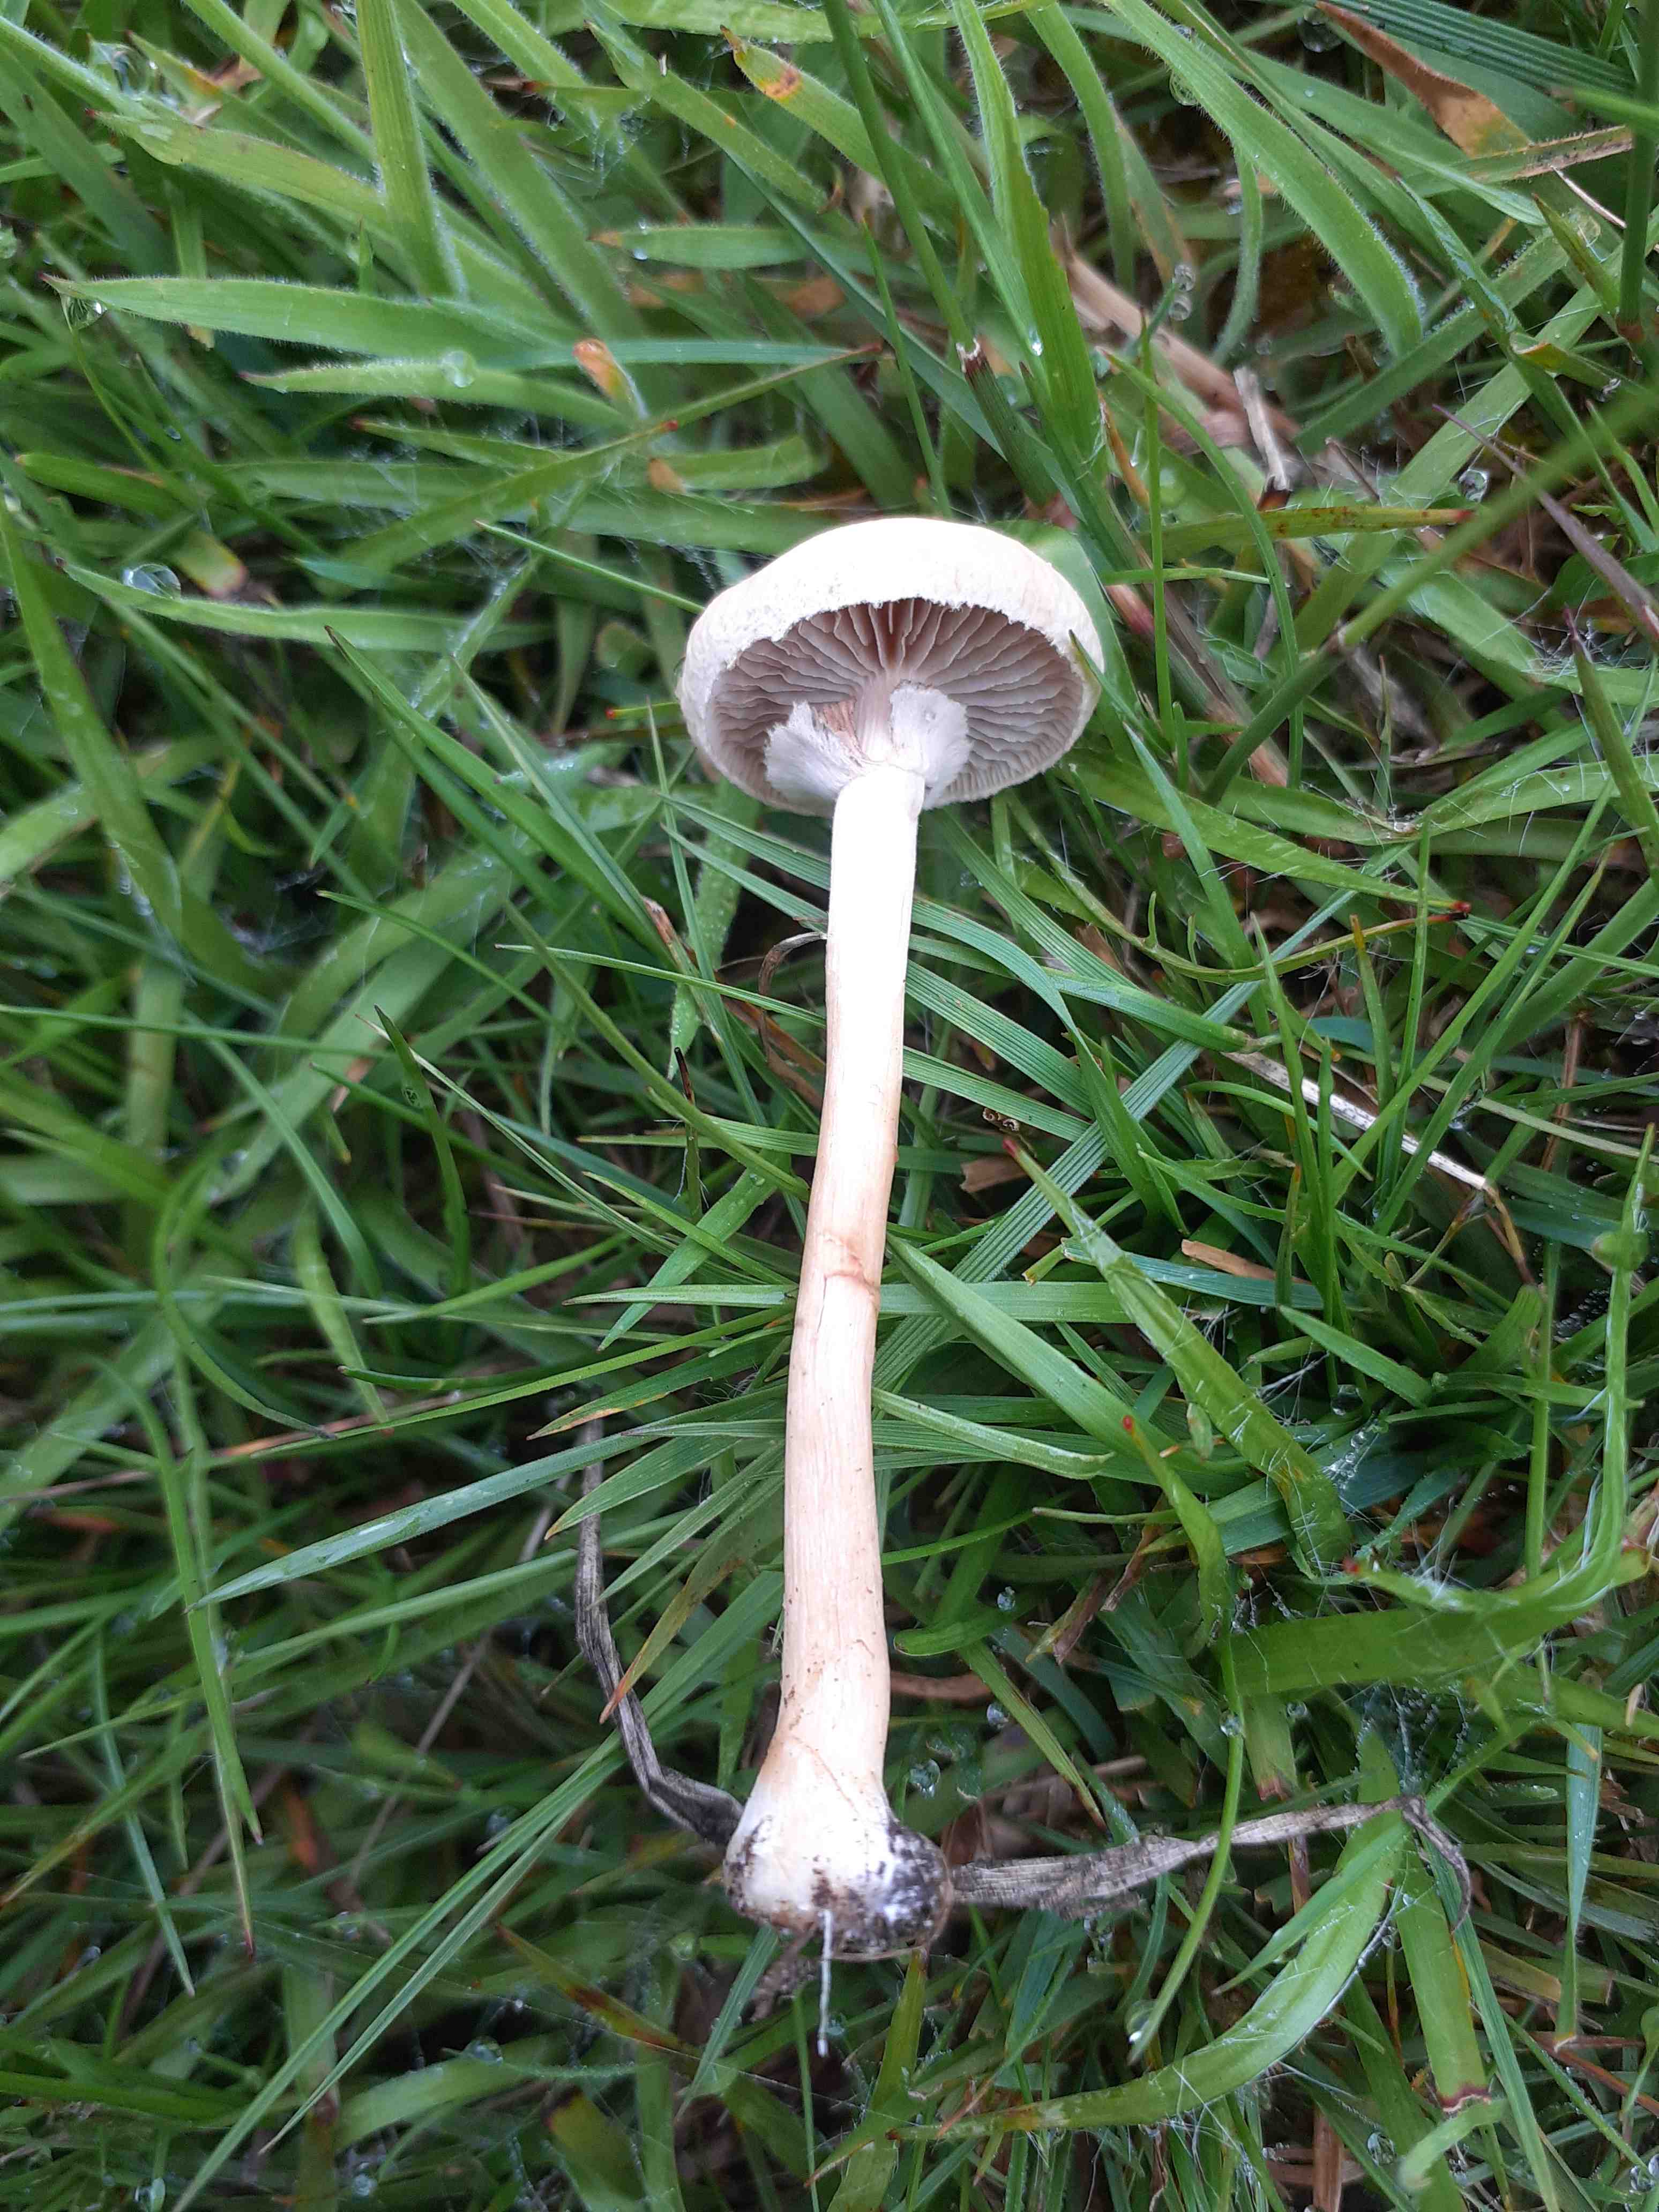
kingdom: Fungi
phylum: Basidiomycota
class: Agaricomycetes
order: Agaricales
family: Strophariaceae
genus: Agrocybe
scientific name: Agrocybe praecox
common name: tidlig agerhat
